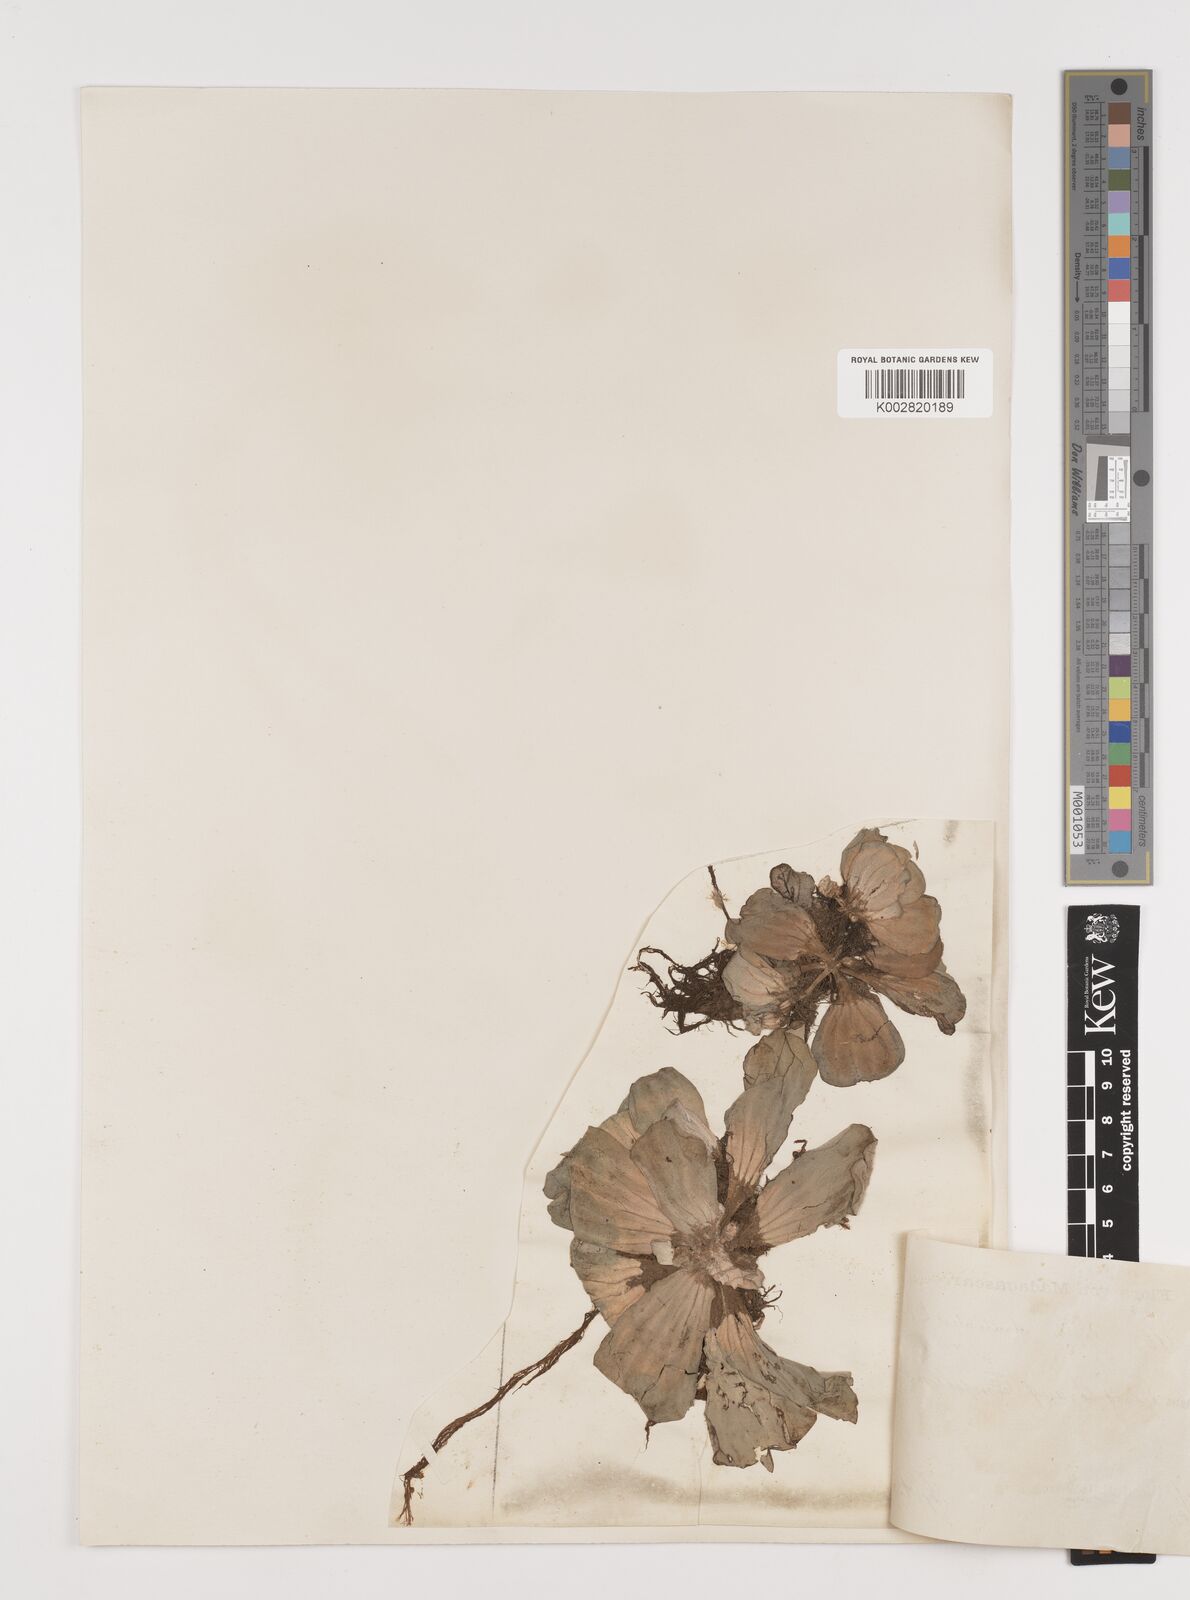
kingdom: Plantae
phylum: Tracheophyta
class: Liliopsida
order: Alismatales
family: Araceae
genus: Pistia
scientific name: Pistia stratiotes
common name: Water lettuce
